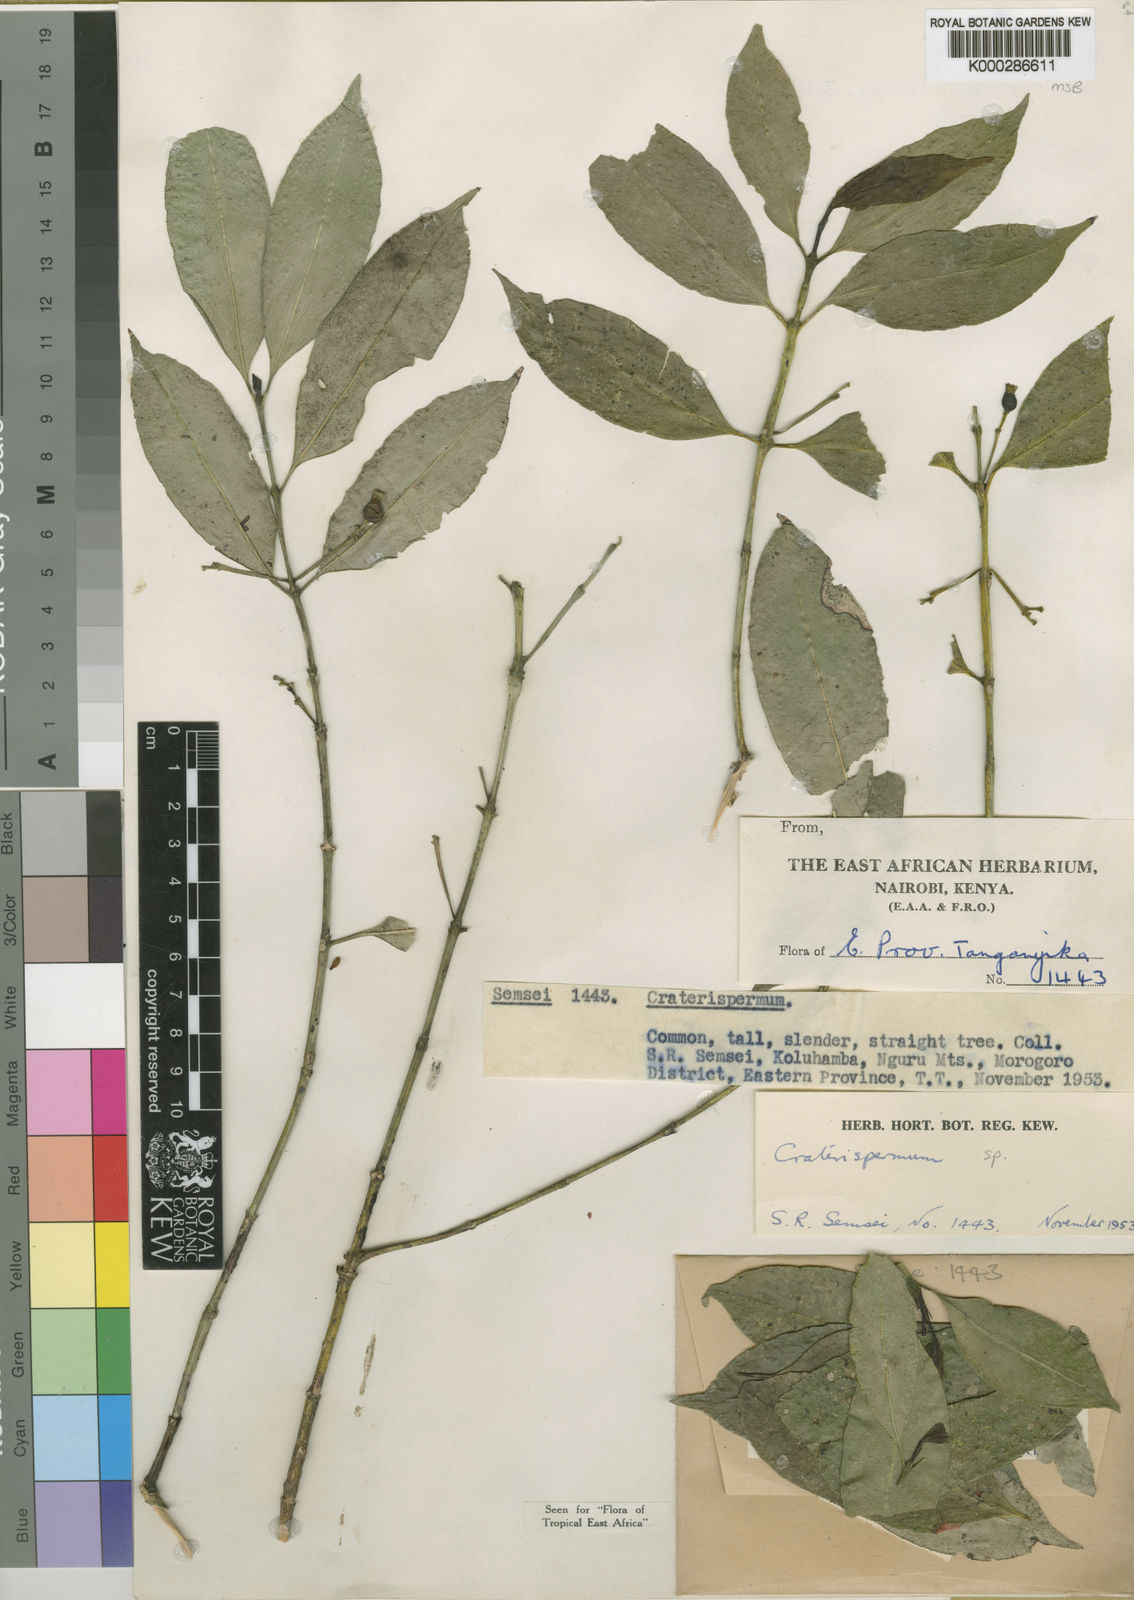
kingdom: Plantae
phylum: Tracheophyta
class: Magnoliopsida
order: Gentianales
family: Rubiaceae
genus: Craterispermum
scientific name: Craterispermum longipedunculatum
